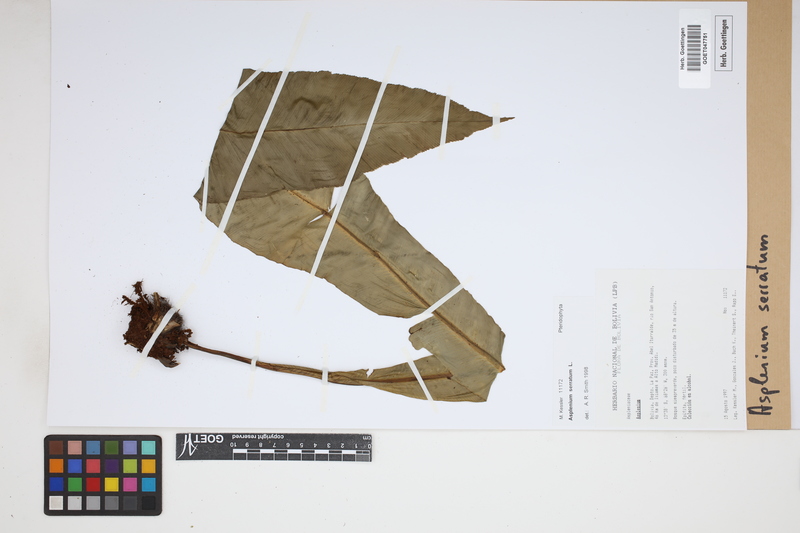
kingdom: Plantae
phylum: Tracheophyta
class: Polypodiopsida
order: Polypodiales
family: Aspleniaceae
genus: Asplenium
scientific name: Asplenium serratum
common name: Wild birdnest fern
